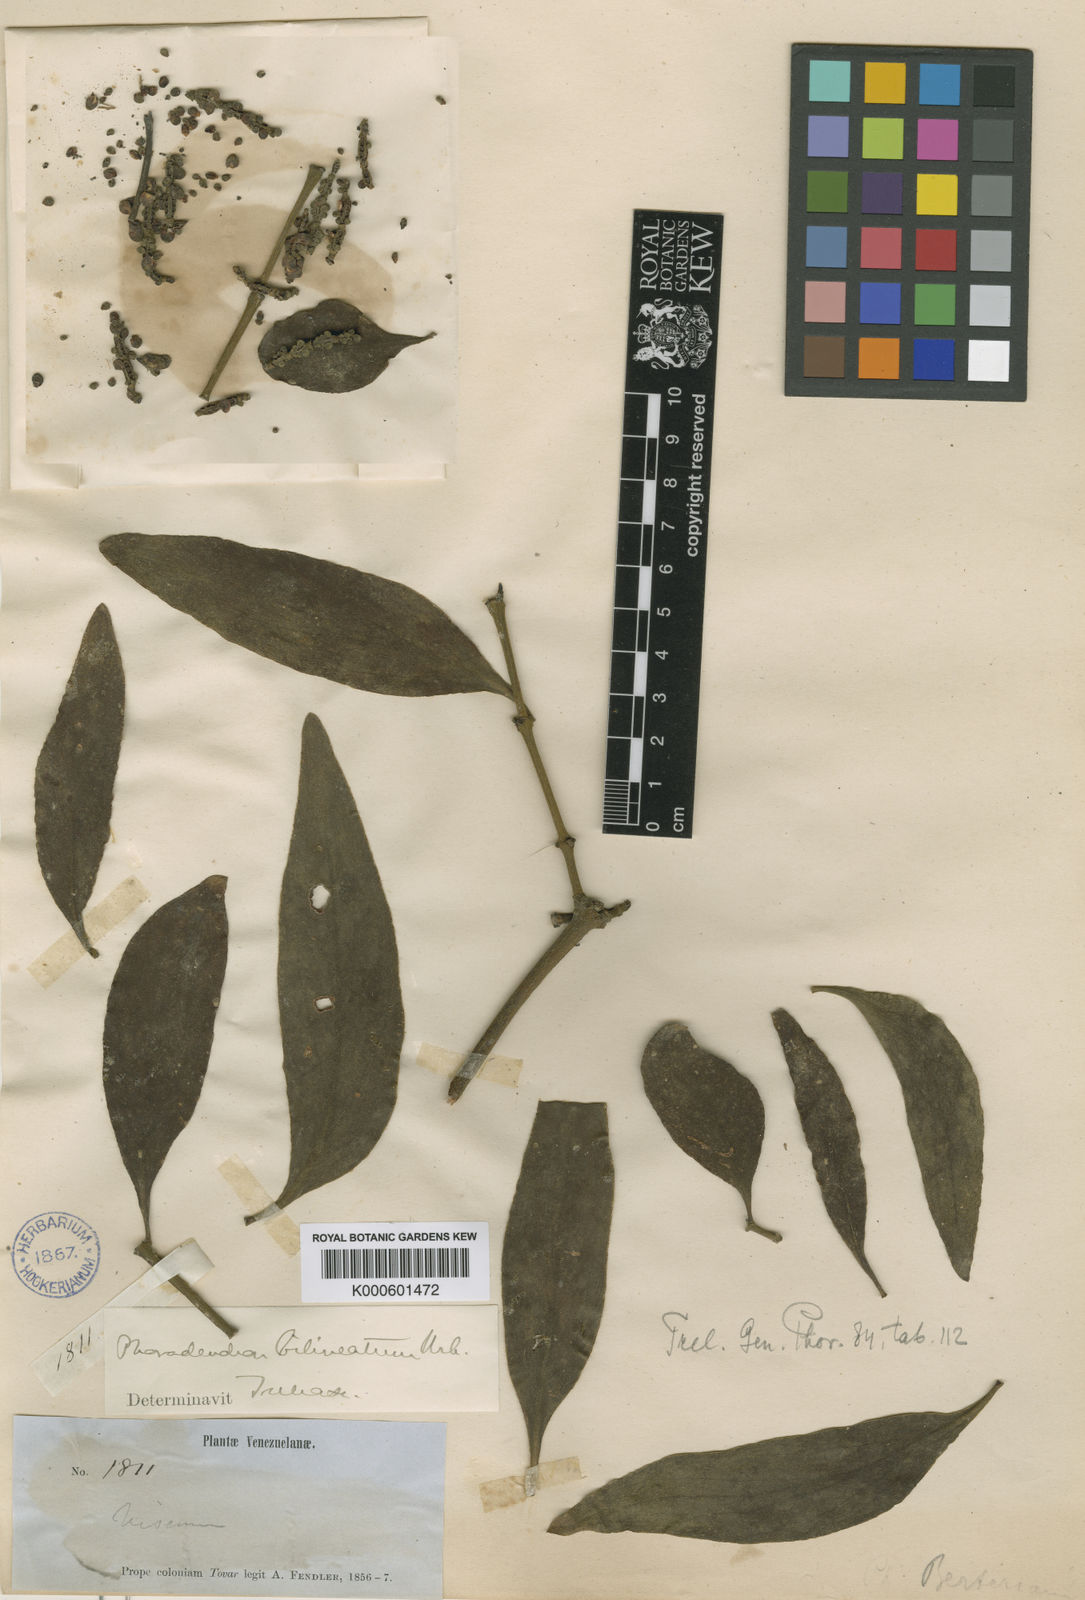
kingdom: Plantae
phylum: Tracheophyta
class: Magnoliopsida
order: Santalales
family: Viscaceae
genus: Phoradendron
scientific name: Phoradendron bilineatum
